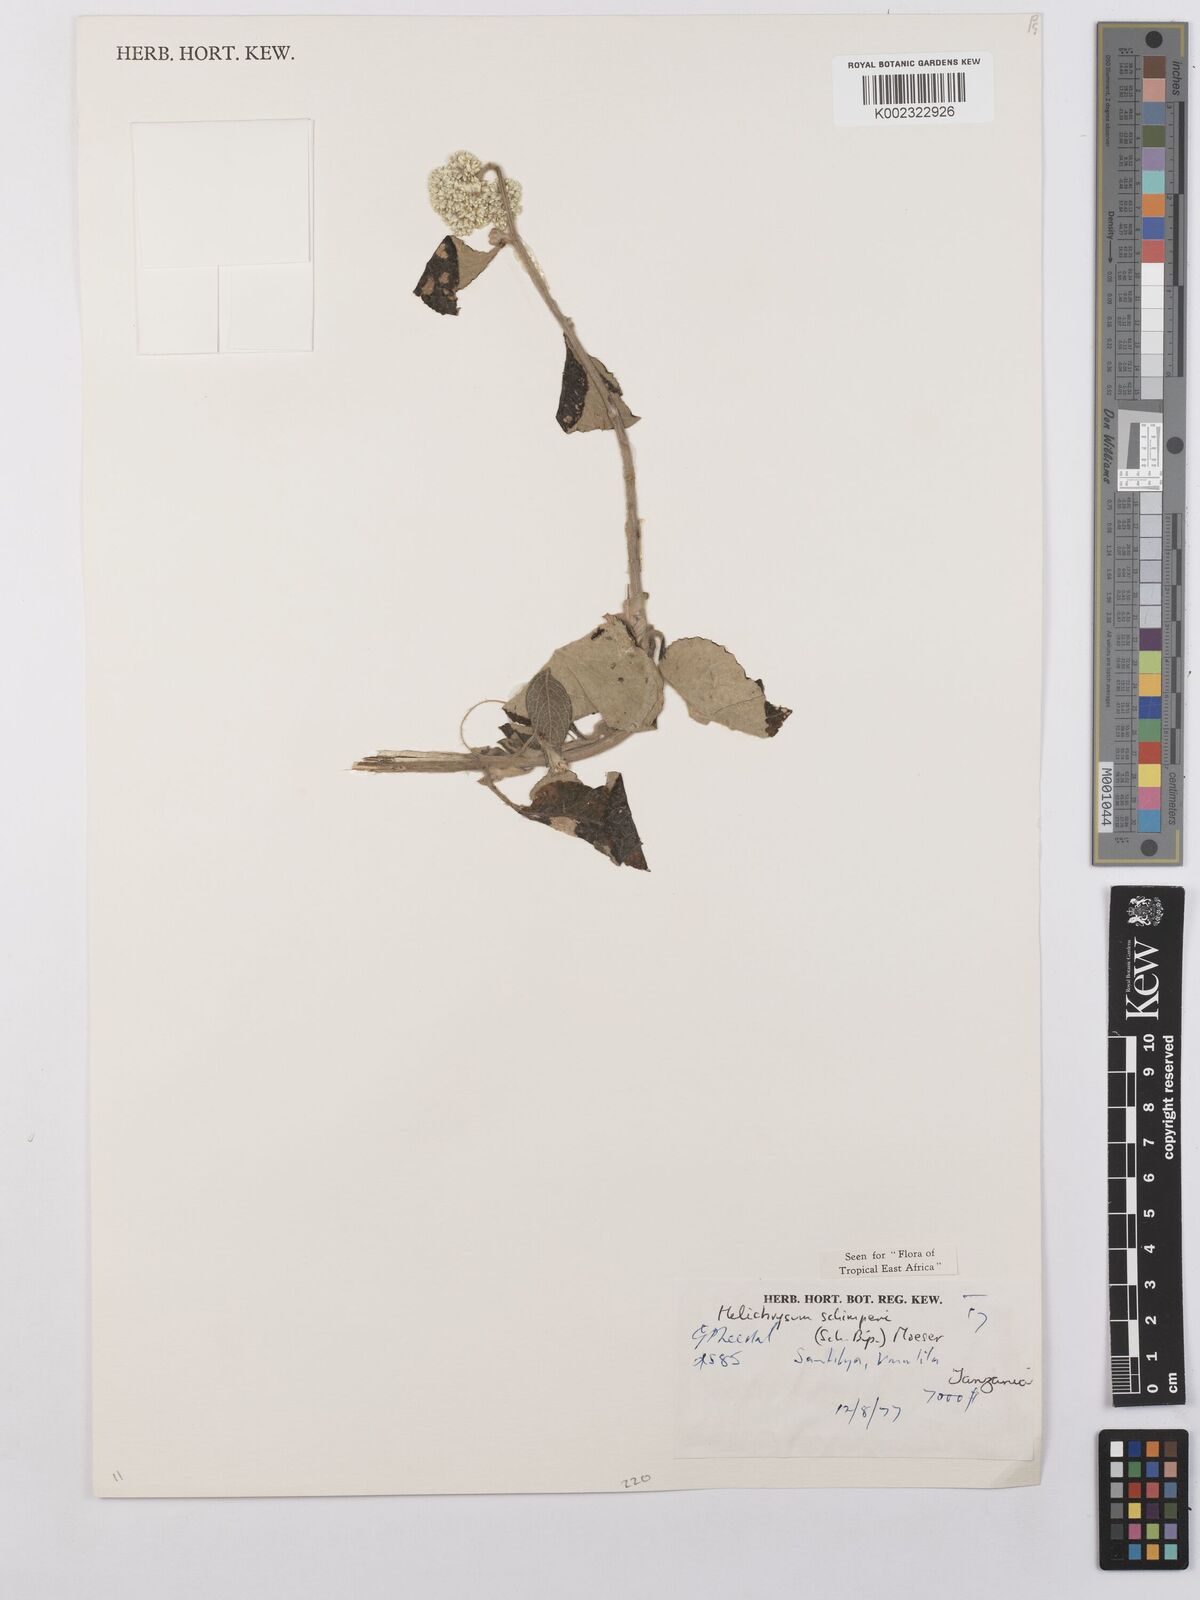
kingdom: Plantae
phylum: Tracheophyta
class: Magnoliopsida
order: Asterales
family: Asteraceae
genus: Helichrysum
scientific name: Helichrysum schimperi
